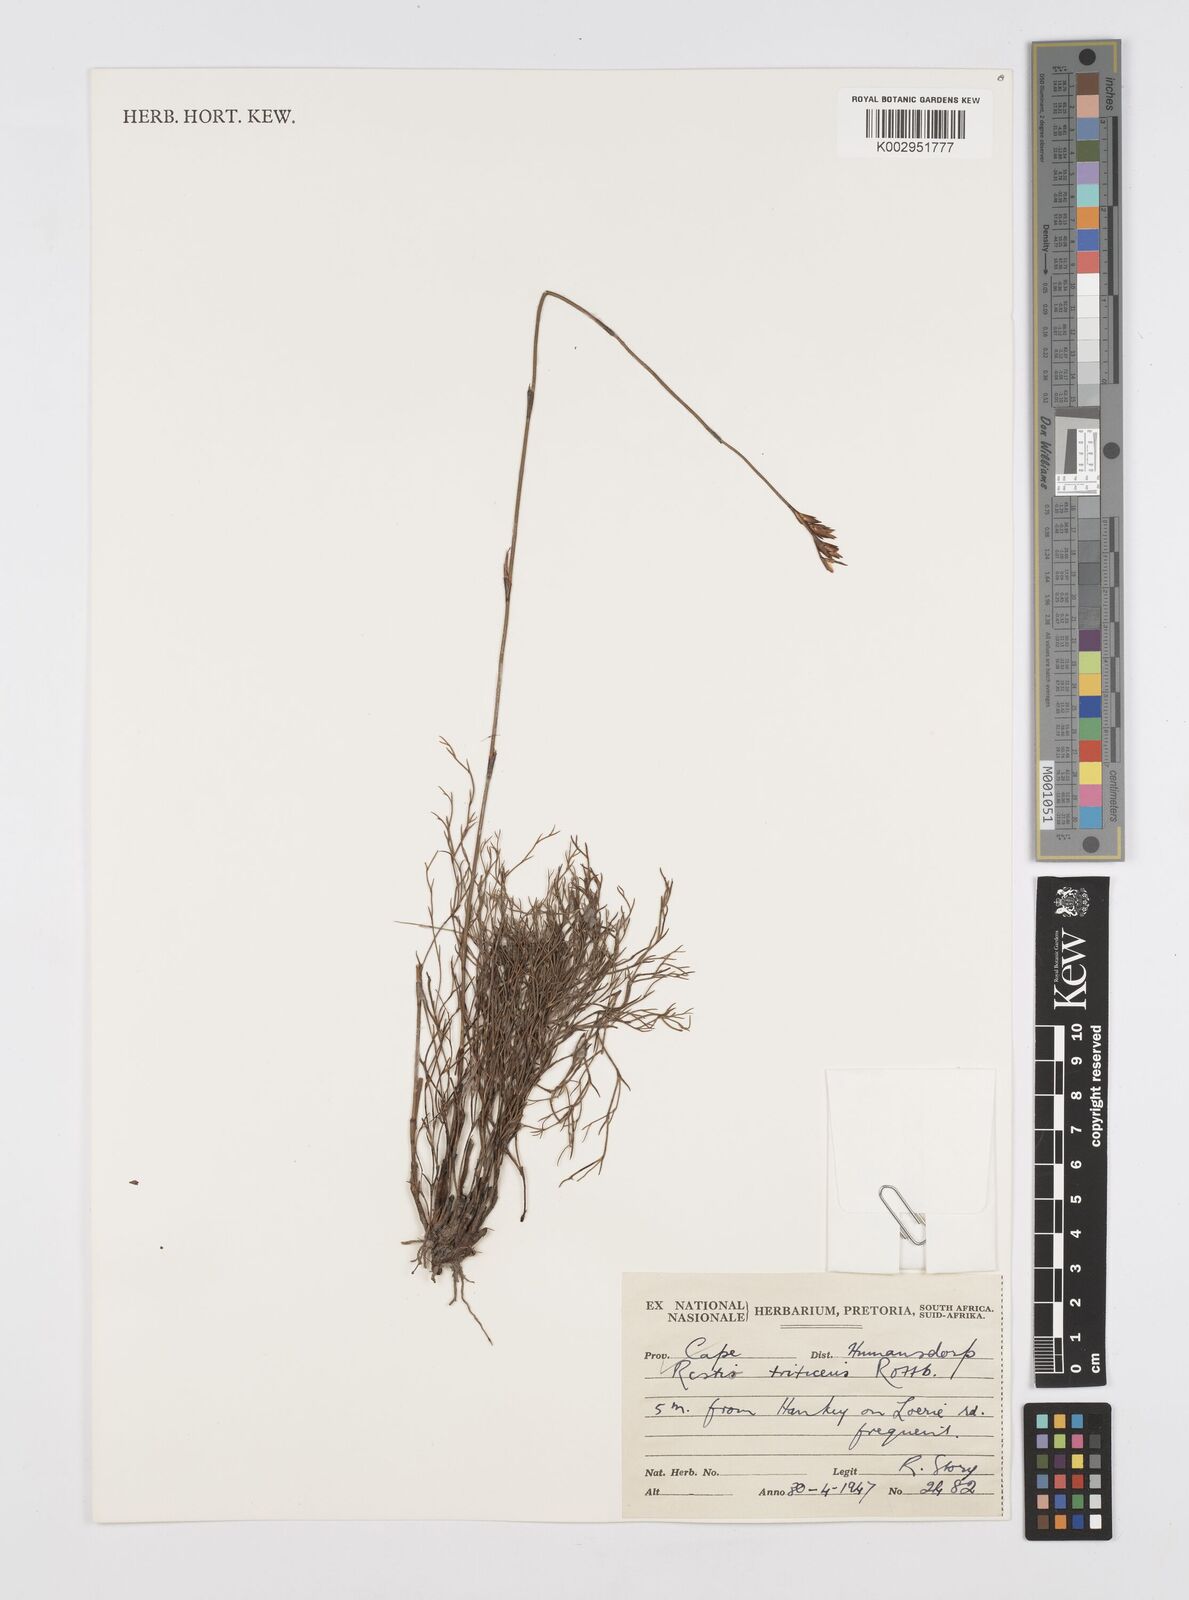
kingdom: Plantae
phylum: Tracheophyta
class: Liliopsida
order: Poales
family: Restionaceae
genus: Restio
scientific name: Restio triticeus
